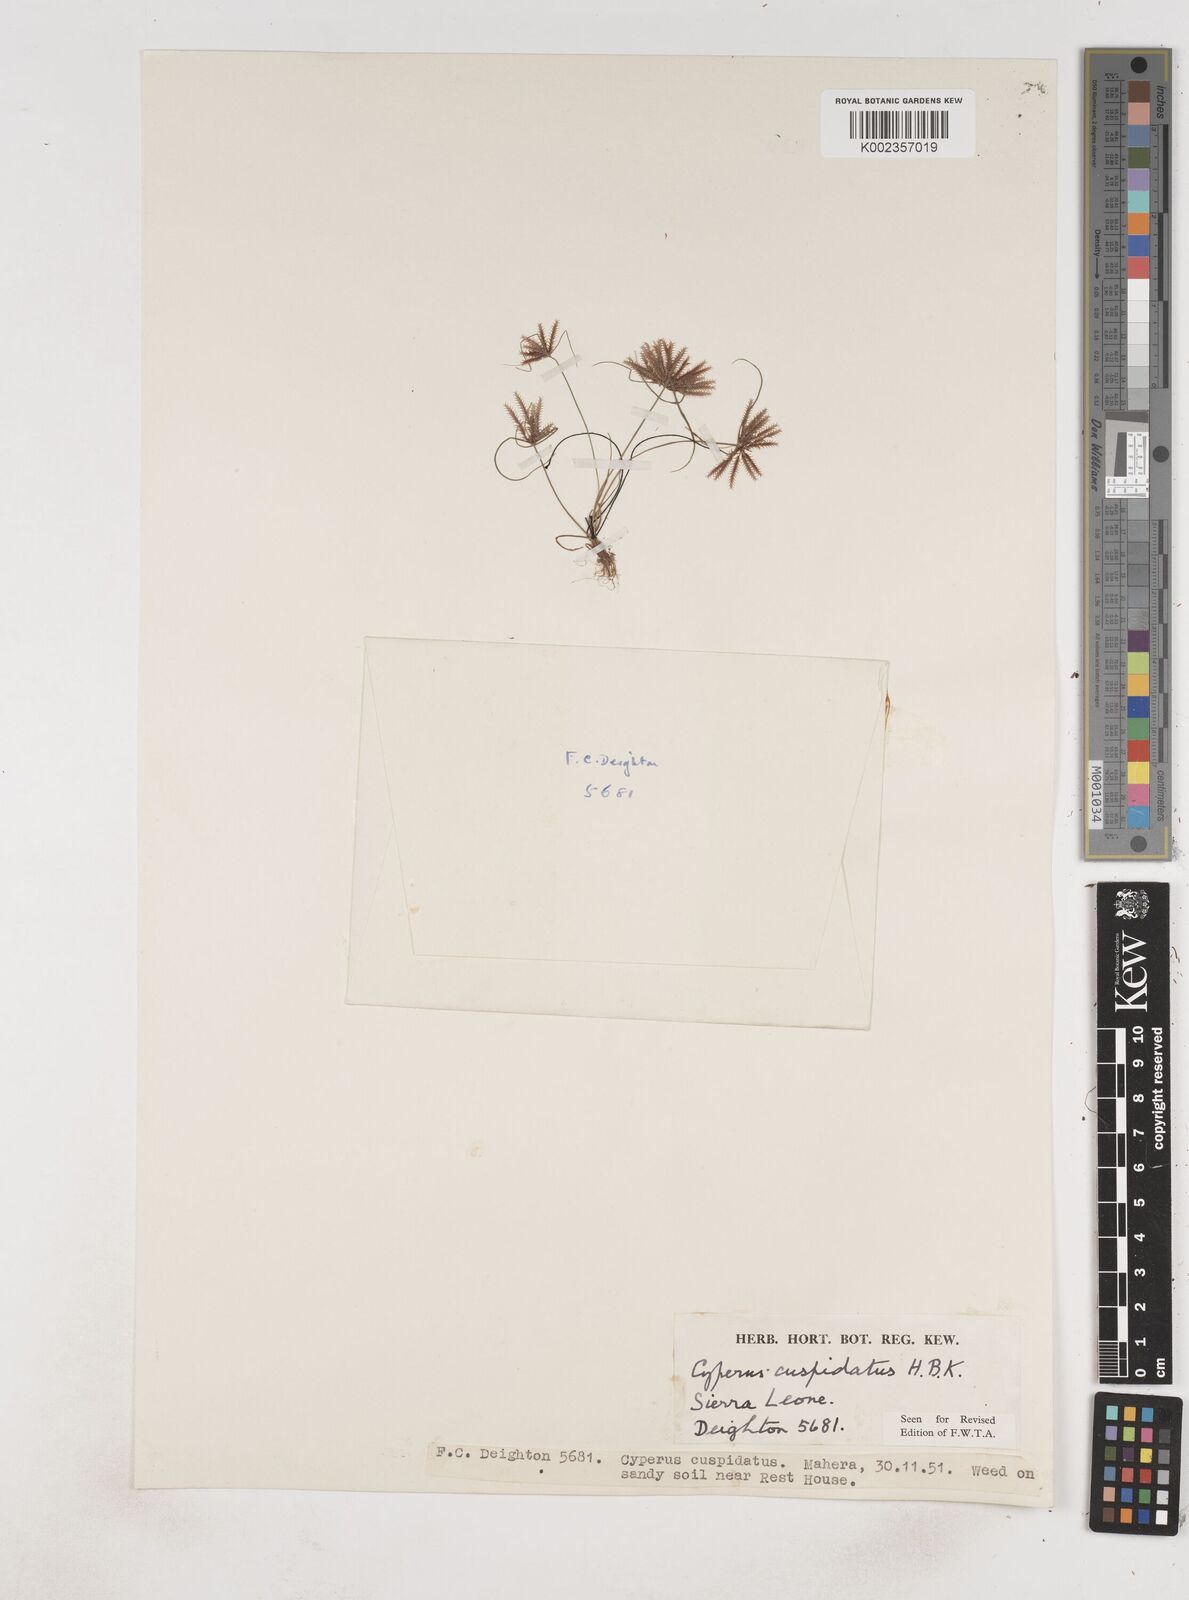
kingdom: Plantae
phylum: Tracheophyta
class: Liliopsida
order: Poales
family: Cyperaceae
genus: Cyperus
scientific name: Cyperus
